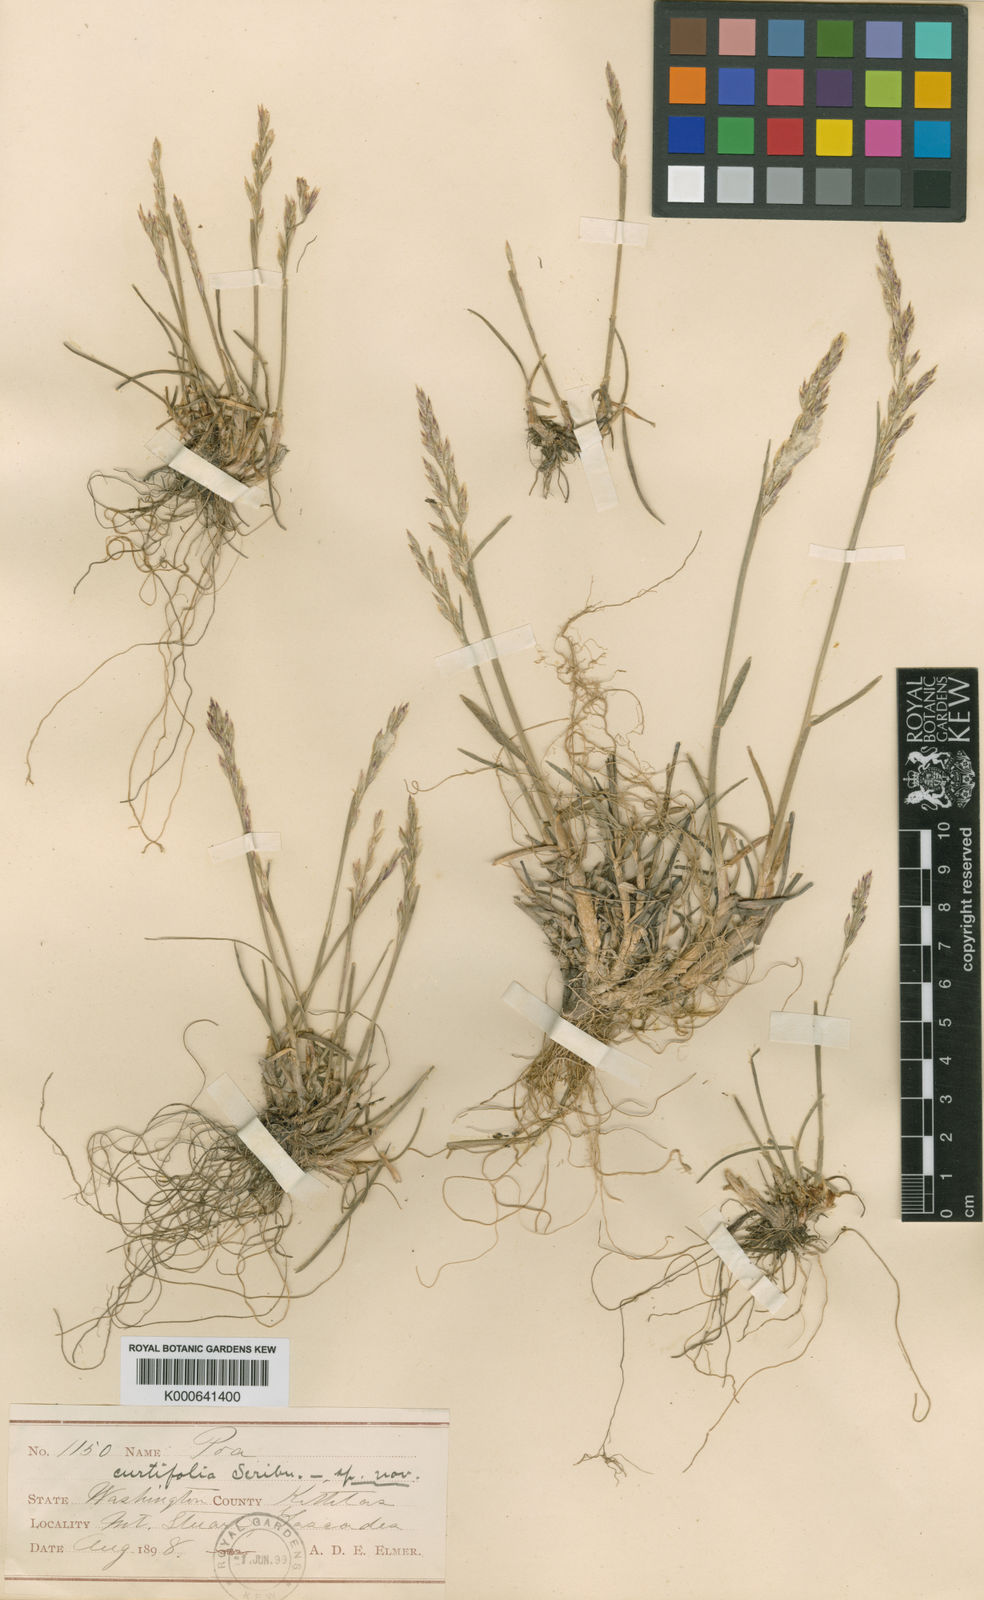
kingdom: Plantae
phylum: Tracheophyta
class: Liliopsida
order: Poales
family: Poaceae
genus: Poa
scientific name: Poa curtifolia
